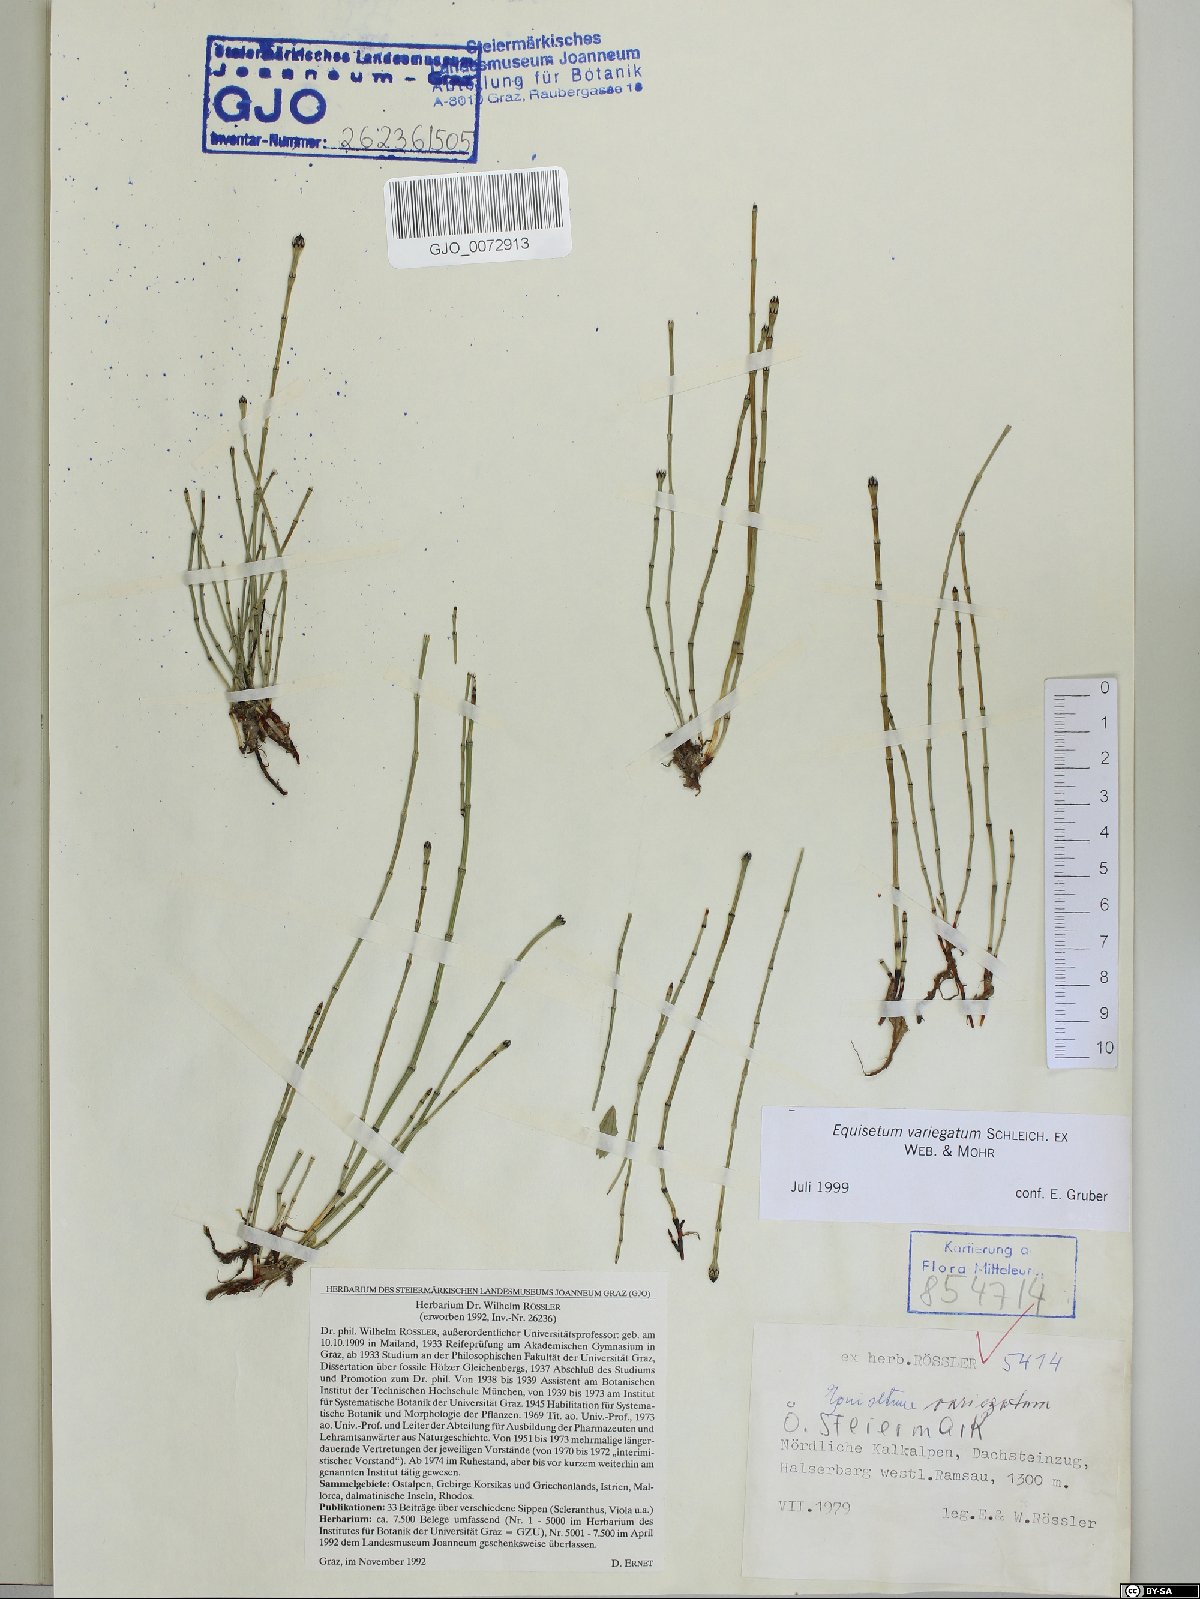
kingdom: Plantae
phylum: Tracheophyta
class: Polypodiopsida
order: Equisetales
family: Equisetaceae
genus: Equisetum
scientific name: Equisetum variegatum
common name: Variegated horsetail
